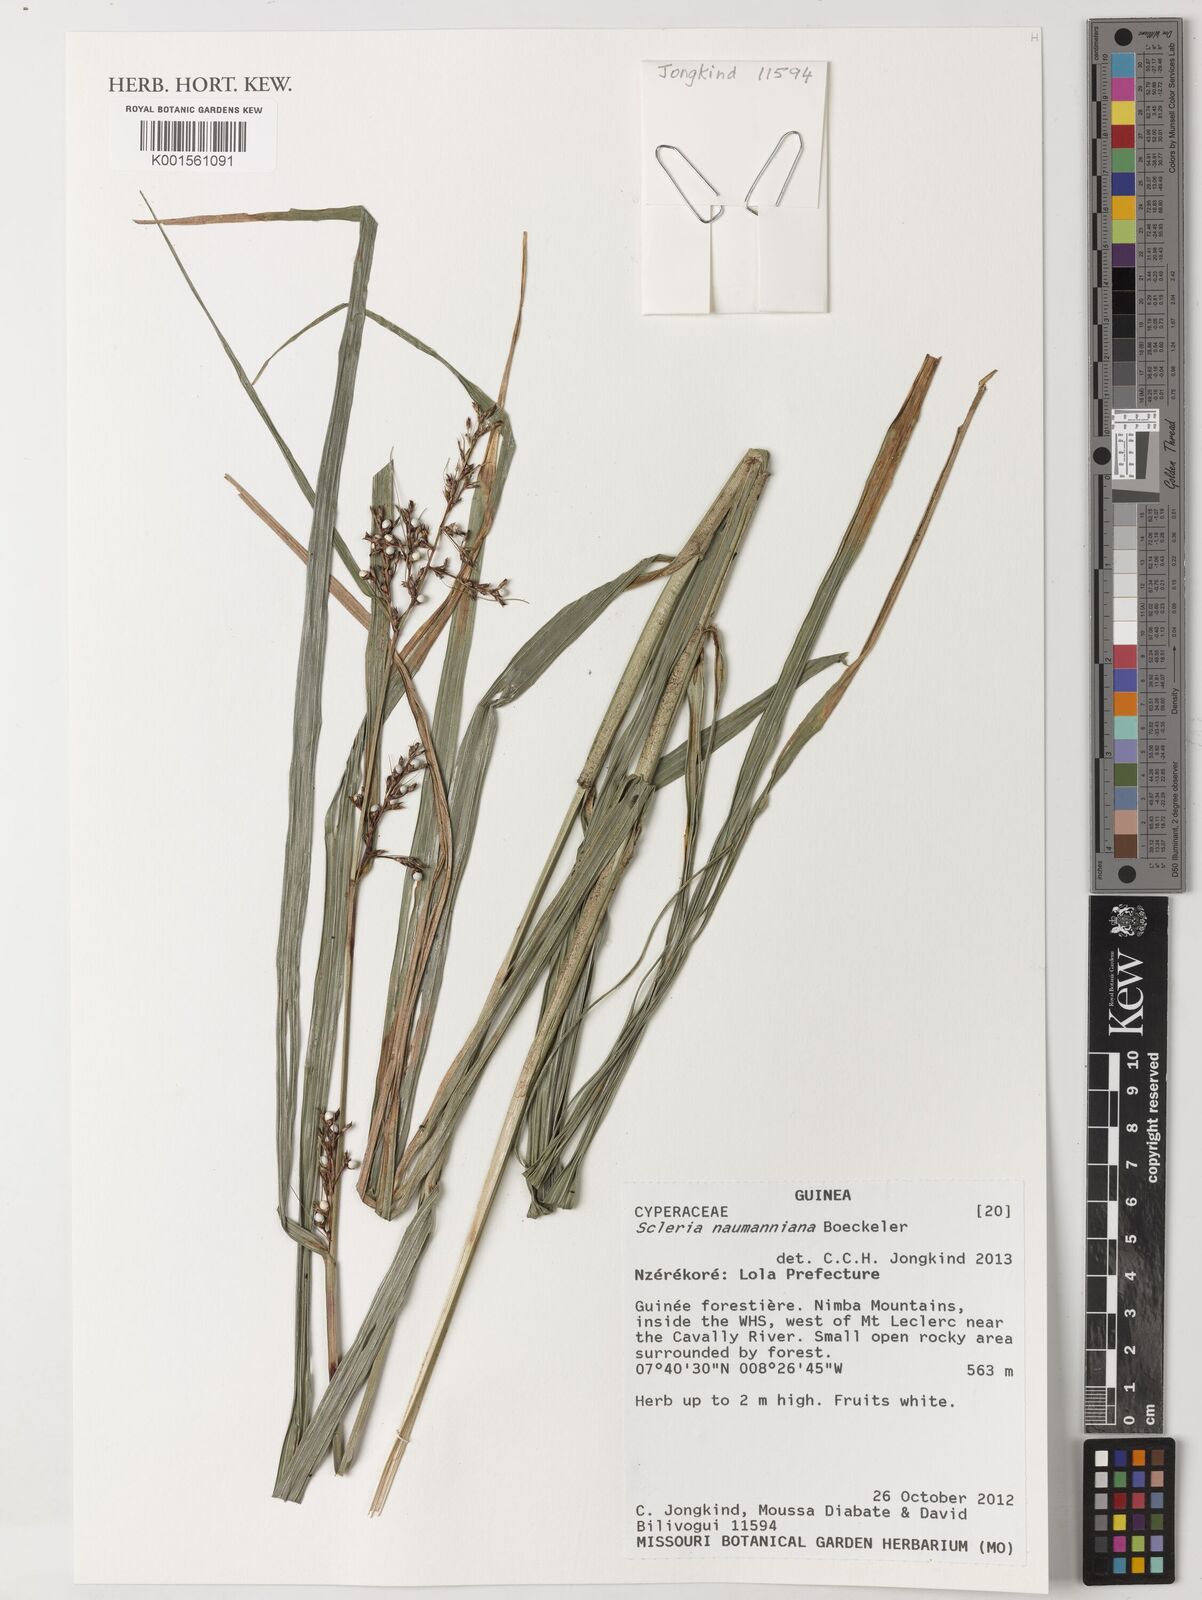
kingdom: Plantae
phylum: Tracheophyta
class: Liliopsida
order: Poales
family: Cyperaceae
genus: Scleria
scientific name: Scleria naumanniana
